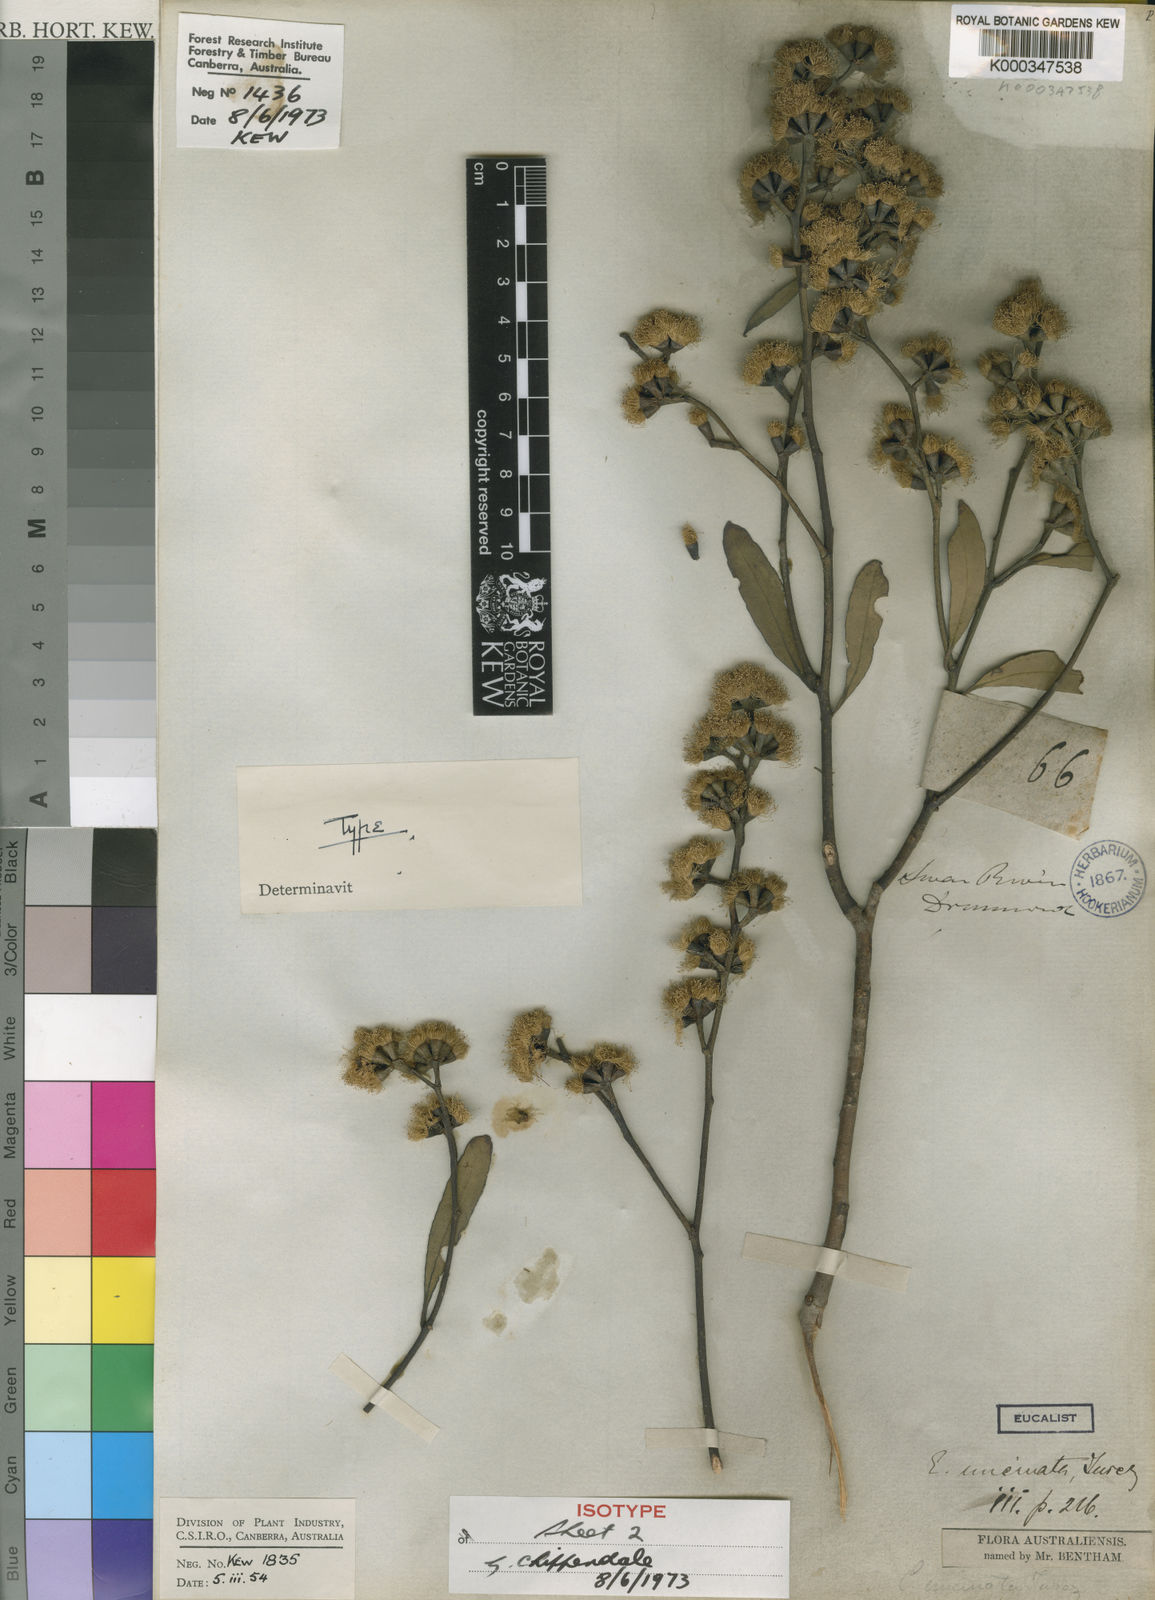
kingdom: Plantae
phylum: Tracheophyta
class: Magnoliopsida
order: Myrtales
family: Myrtaceae
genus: Eucalyptus
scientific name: Eucalyptus uncinata
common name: Hooked-leaved mallee
